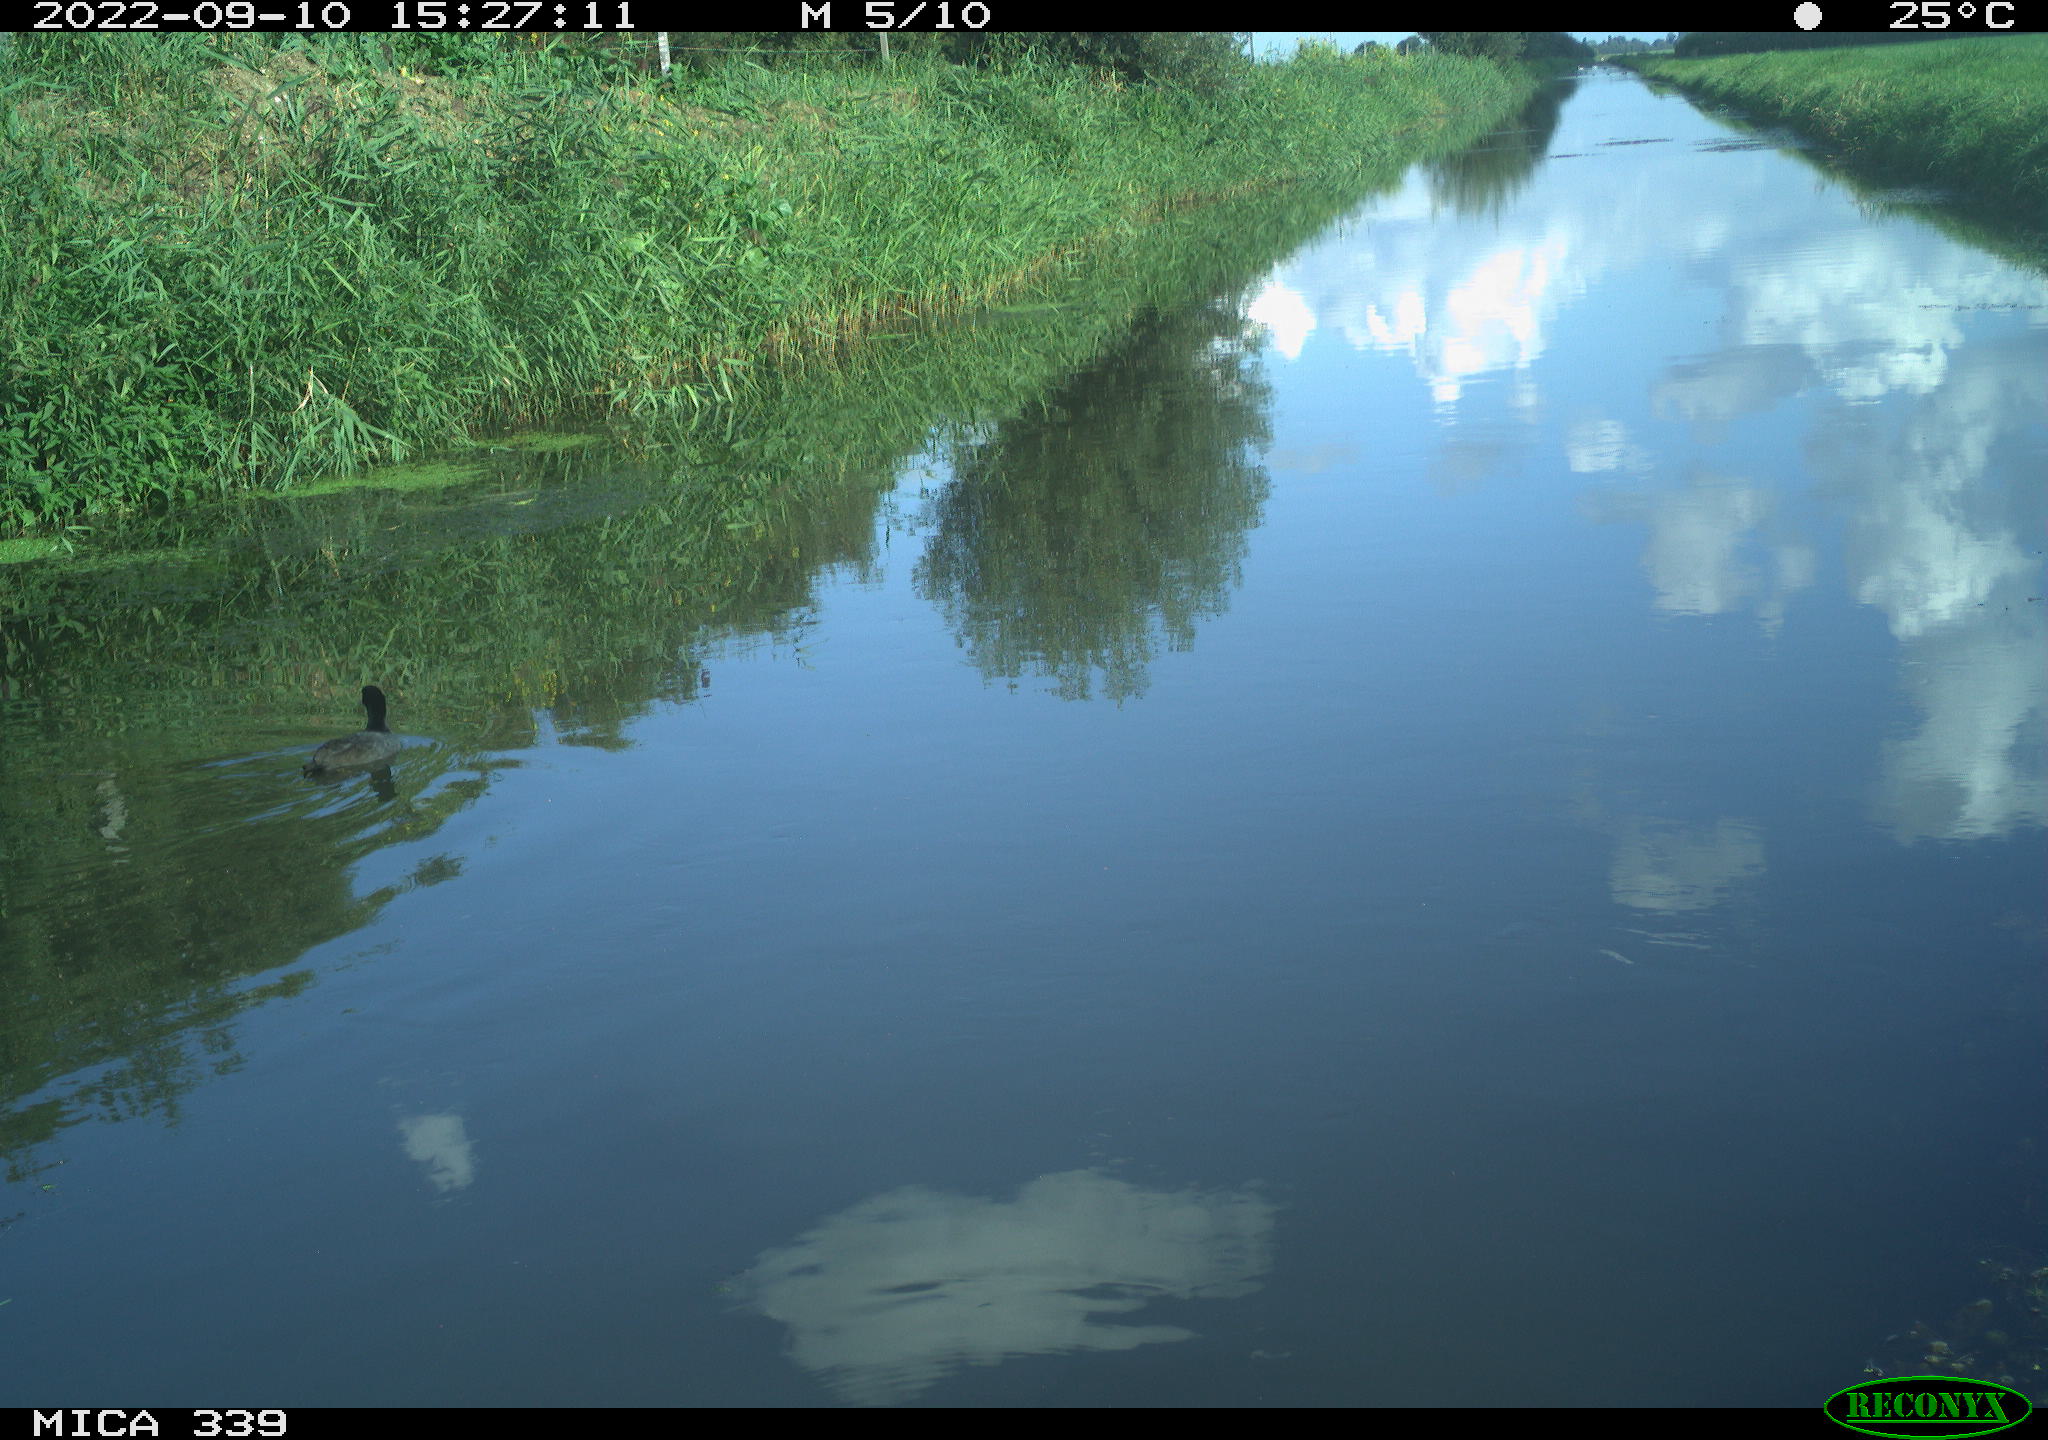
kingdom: Animalia
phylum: Chordata
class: Aves
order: Anseriformes
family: Anatidae
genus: Anas
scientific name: Anas
